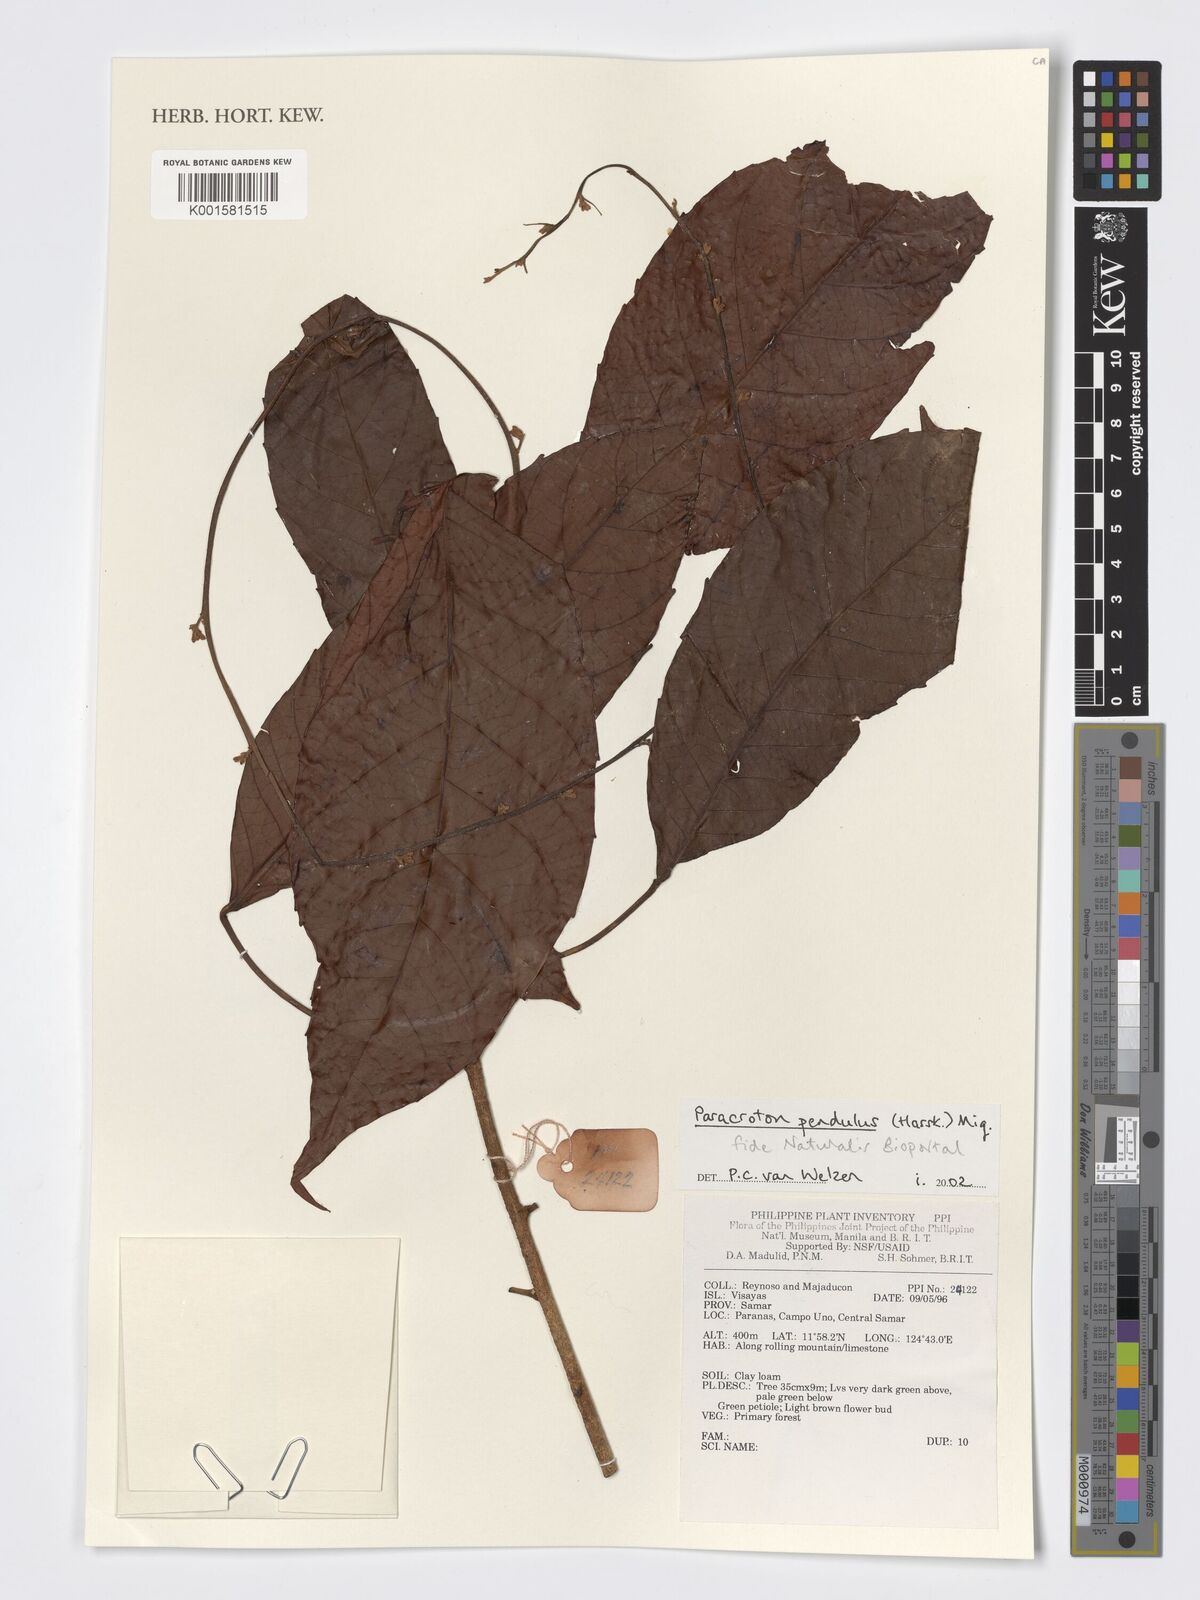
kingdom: Plantae
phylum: Tracheophyta
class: Magnoliopsida
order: Malpighiales
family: Euphorbiaceae
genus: Paracroton
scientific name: Paracroton pendulus
